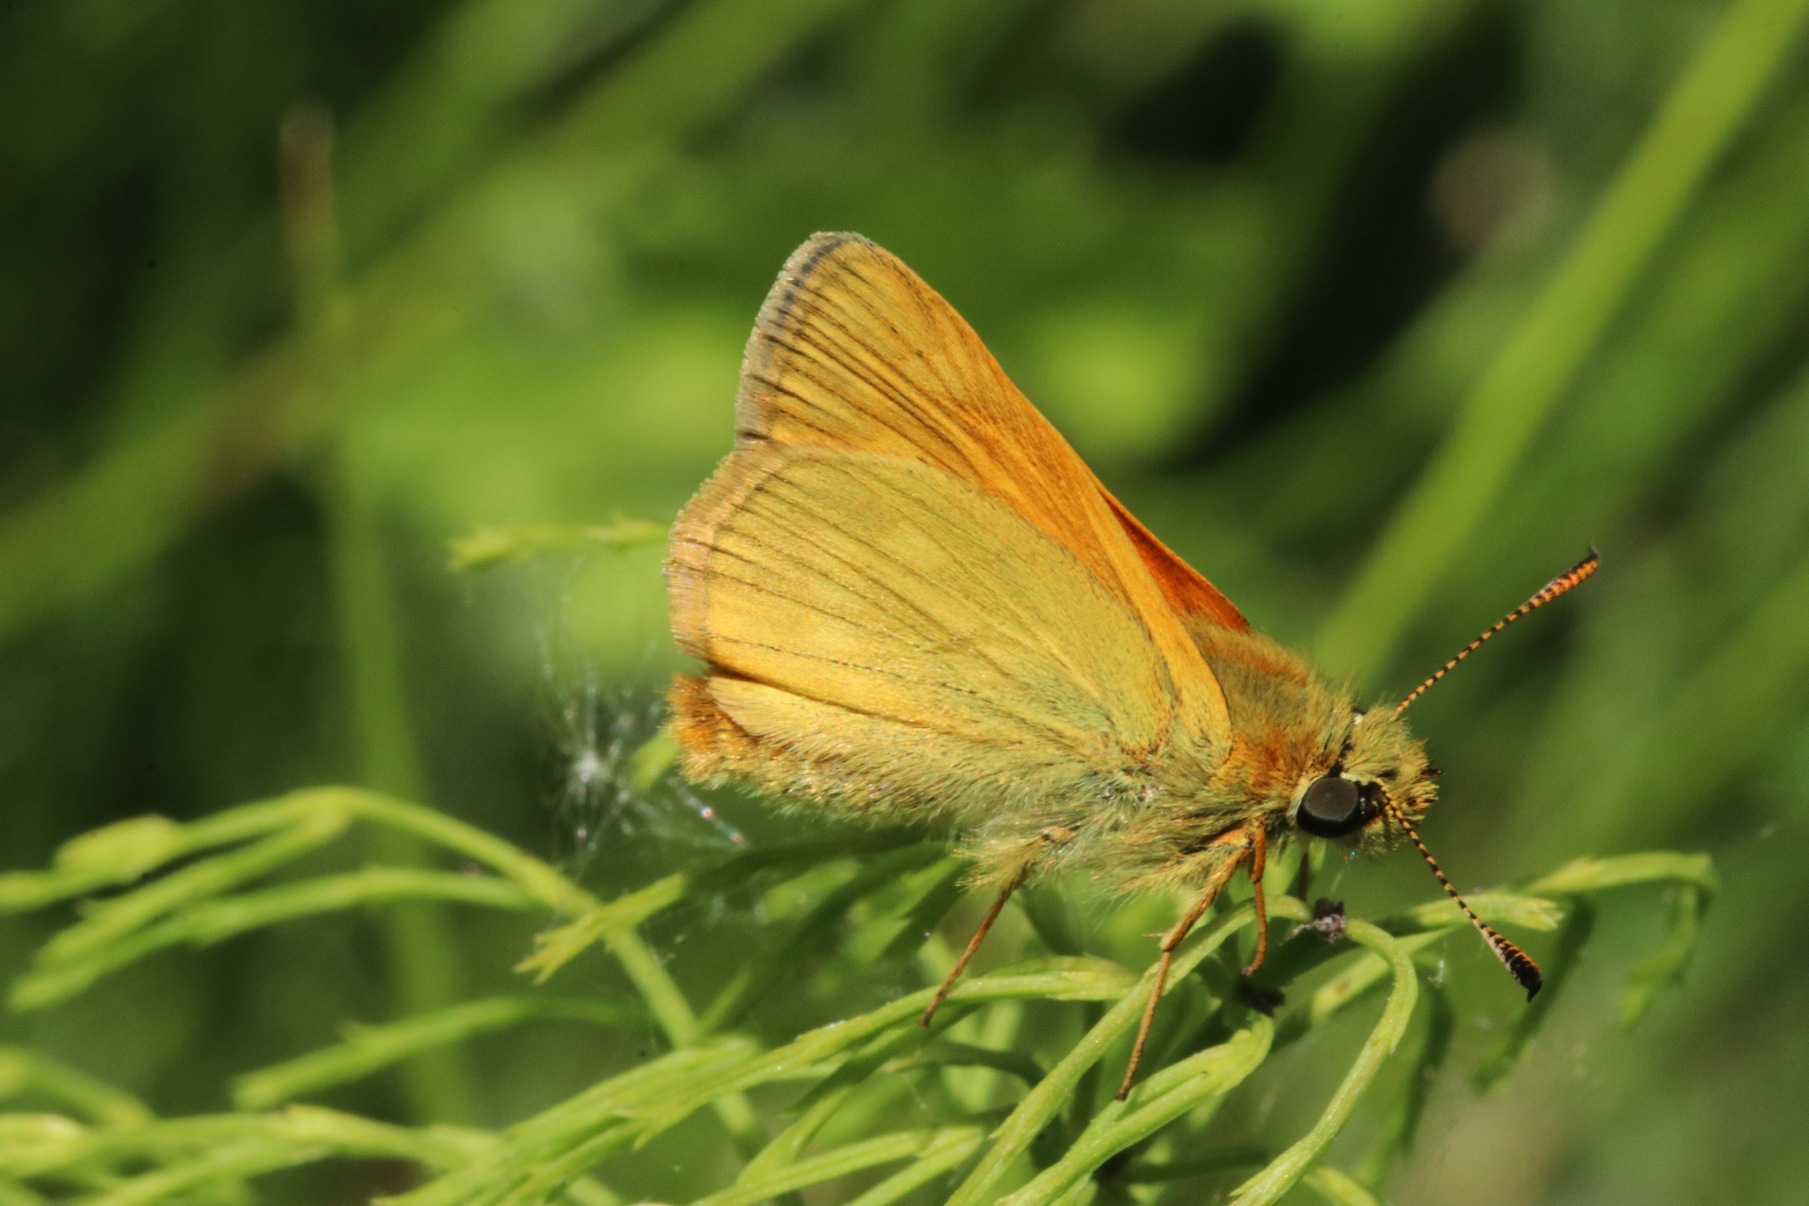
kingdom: Animalia
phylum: Arthropoda
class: Insecta
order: Lepidoptera
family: Hesperiidae
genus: Ochlodes
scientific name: Ochlodes venata
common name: Stor bredpande
